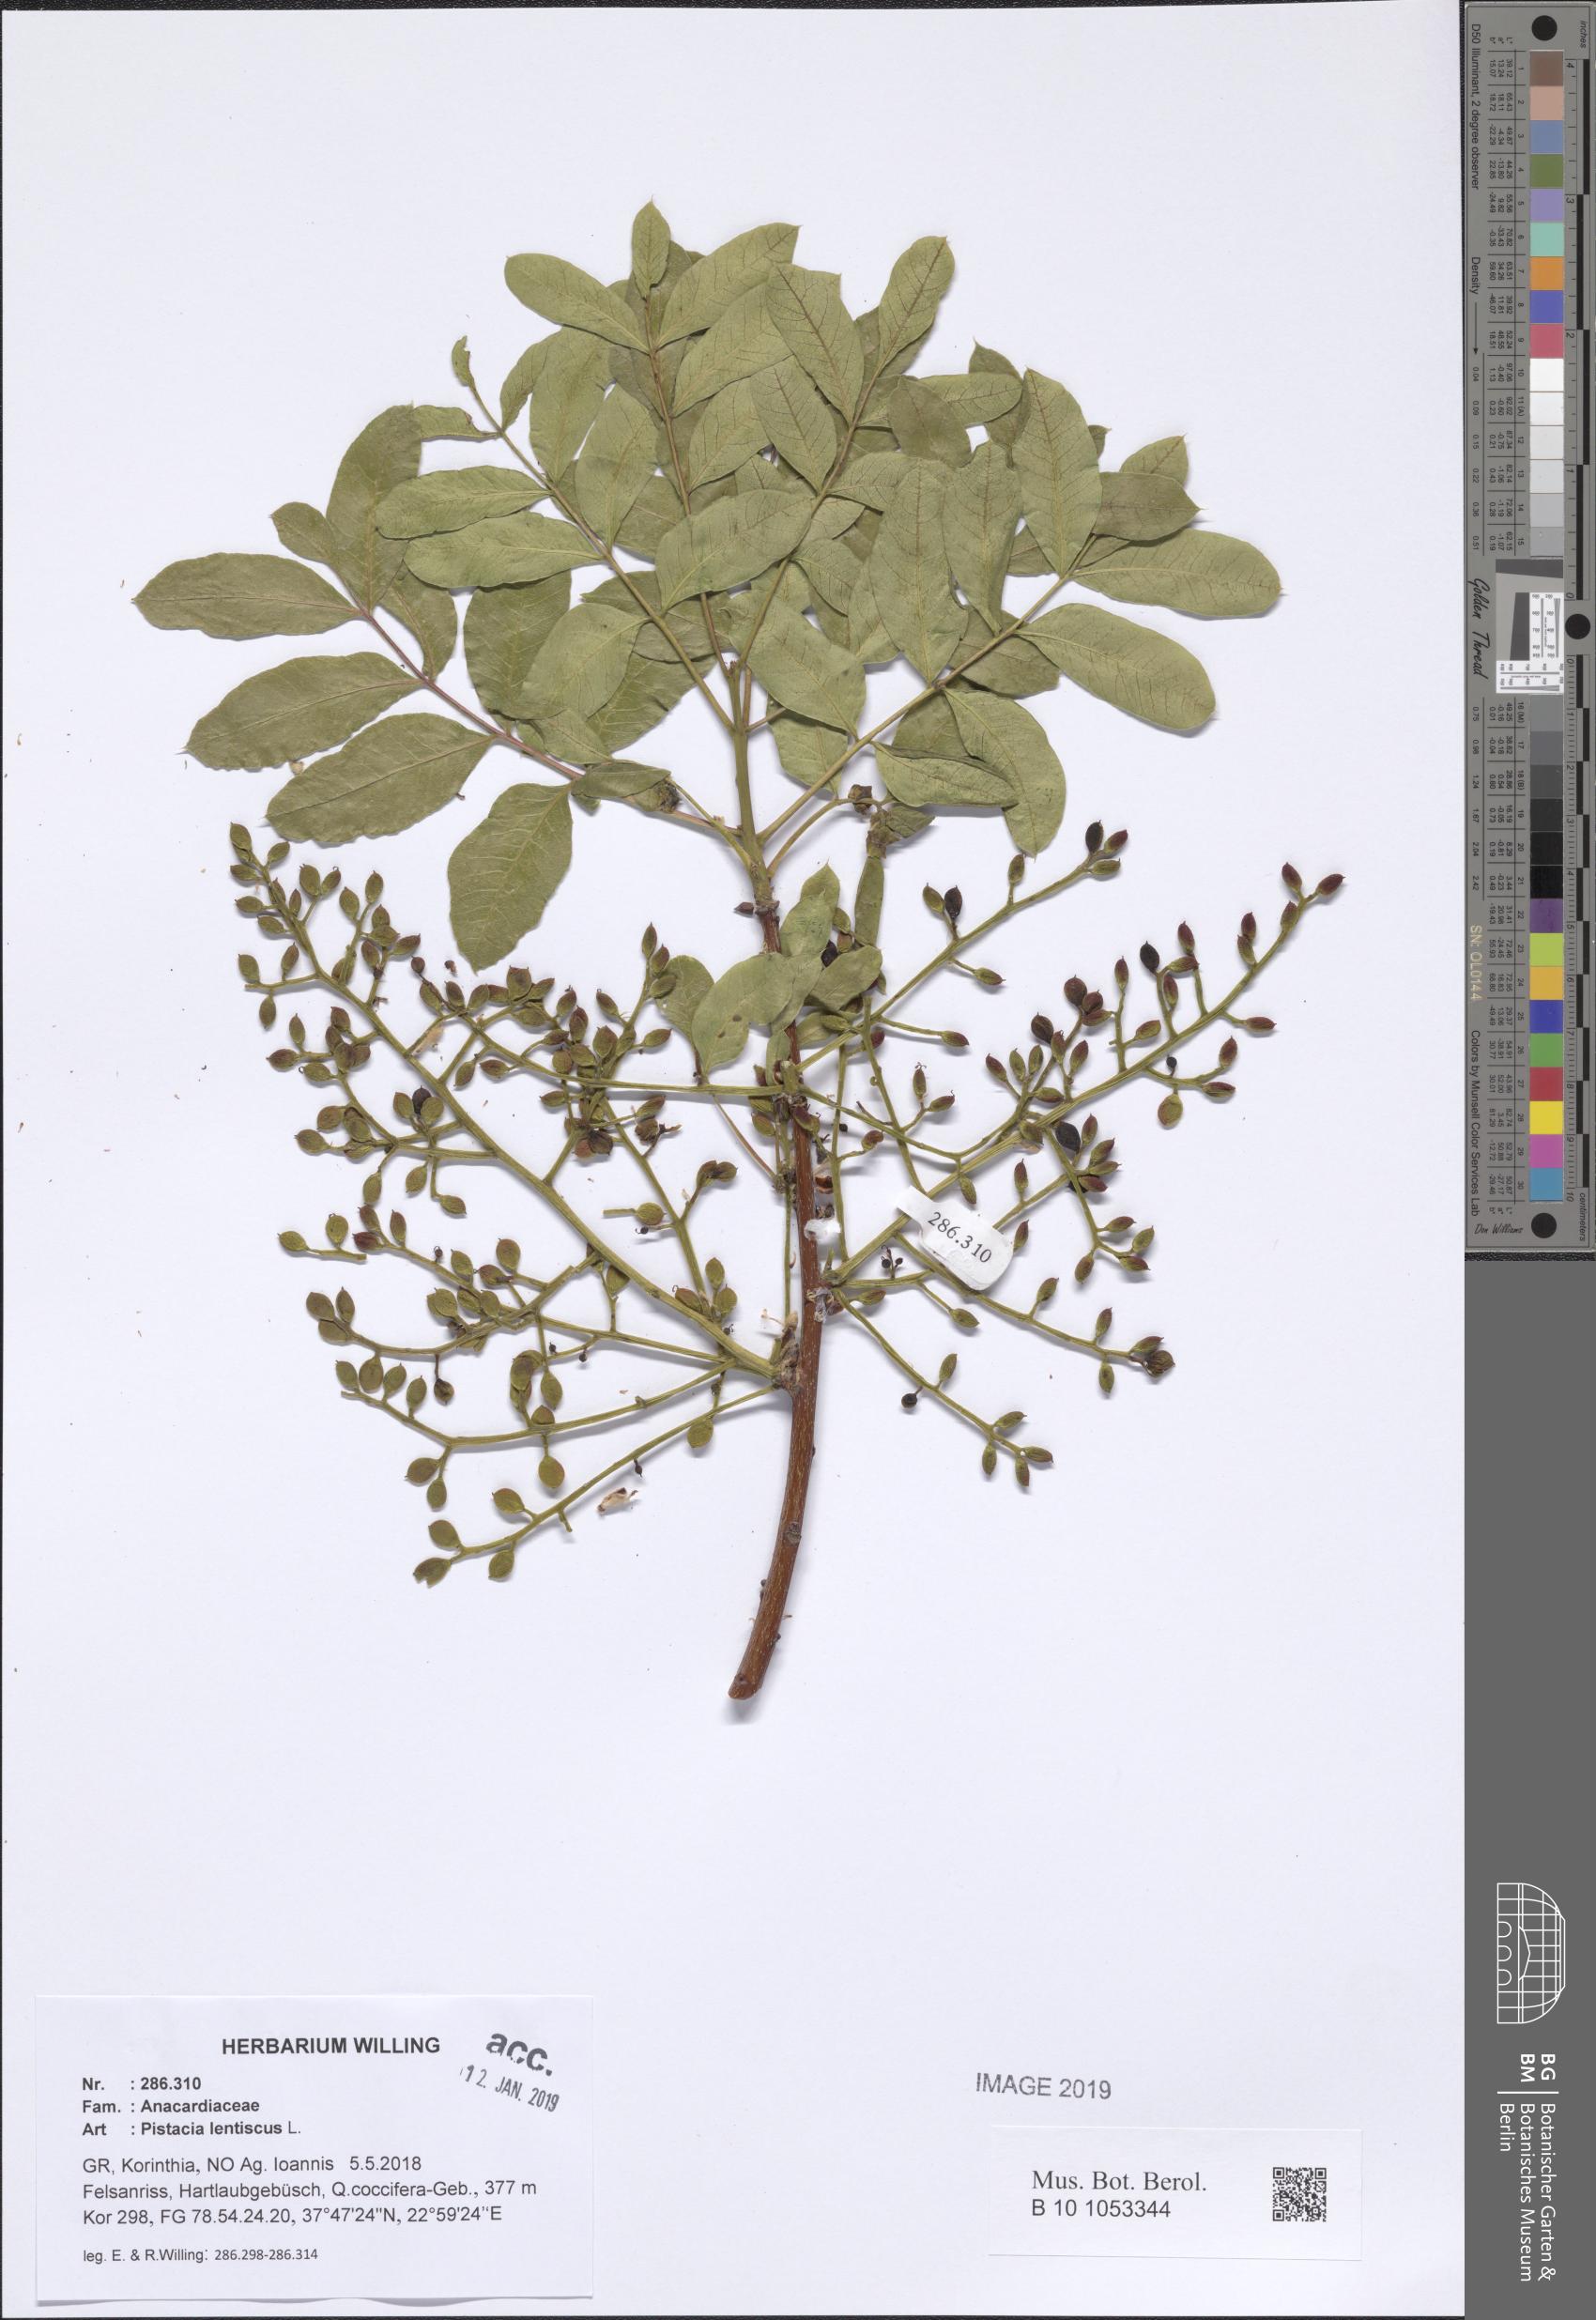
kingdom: Plantae
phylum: Tracheophyta
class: Magnoliopsida
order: Sapindales
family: Anacardiaceae
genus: Pistacia
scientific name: Pistacia lentiscus
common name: Lentisk
